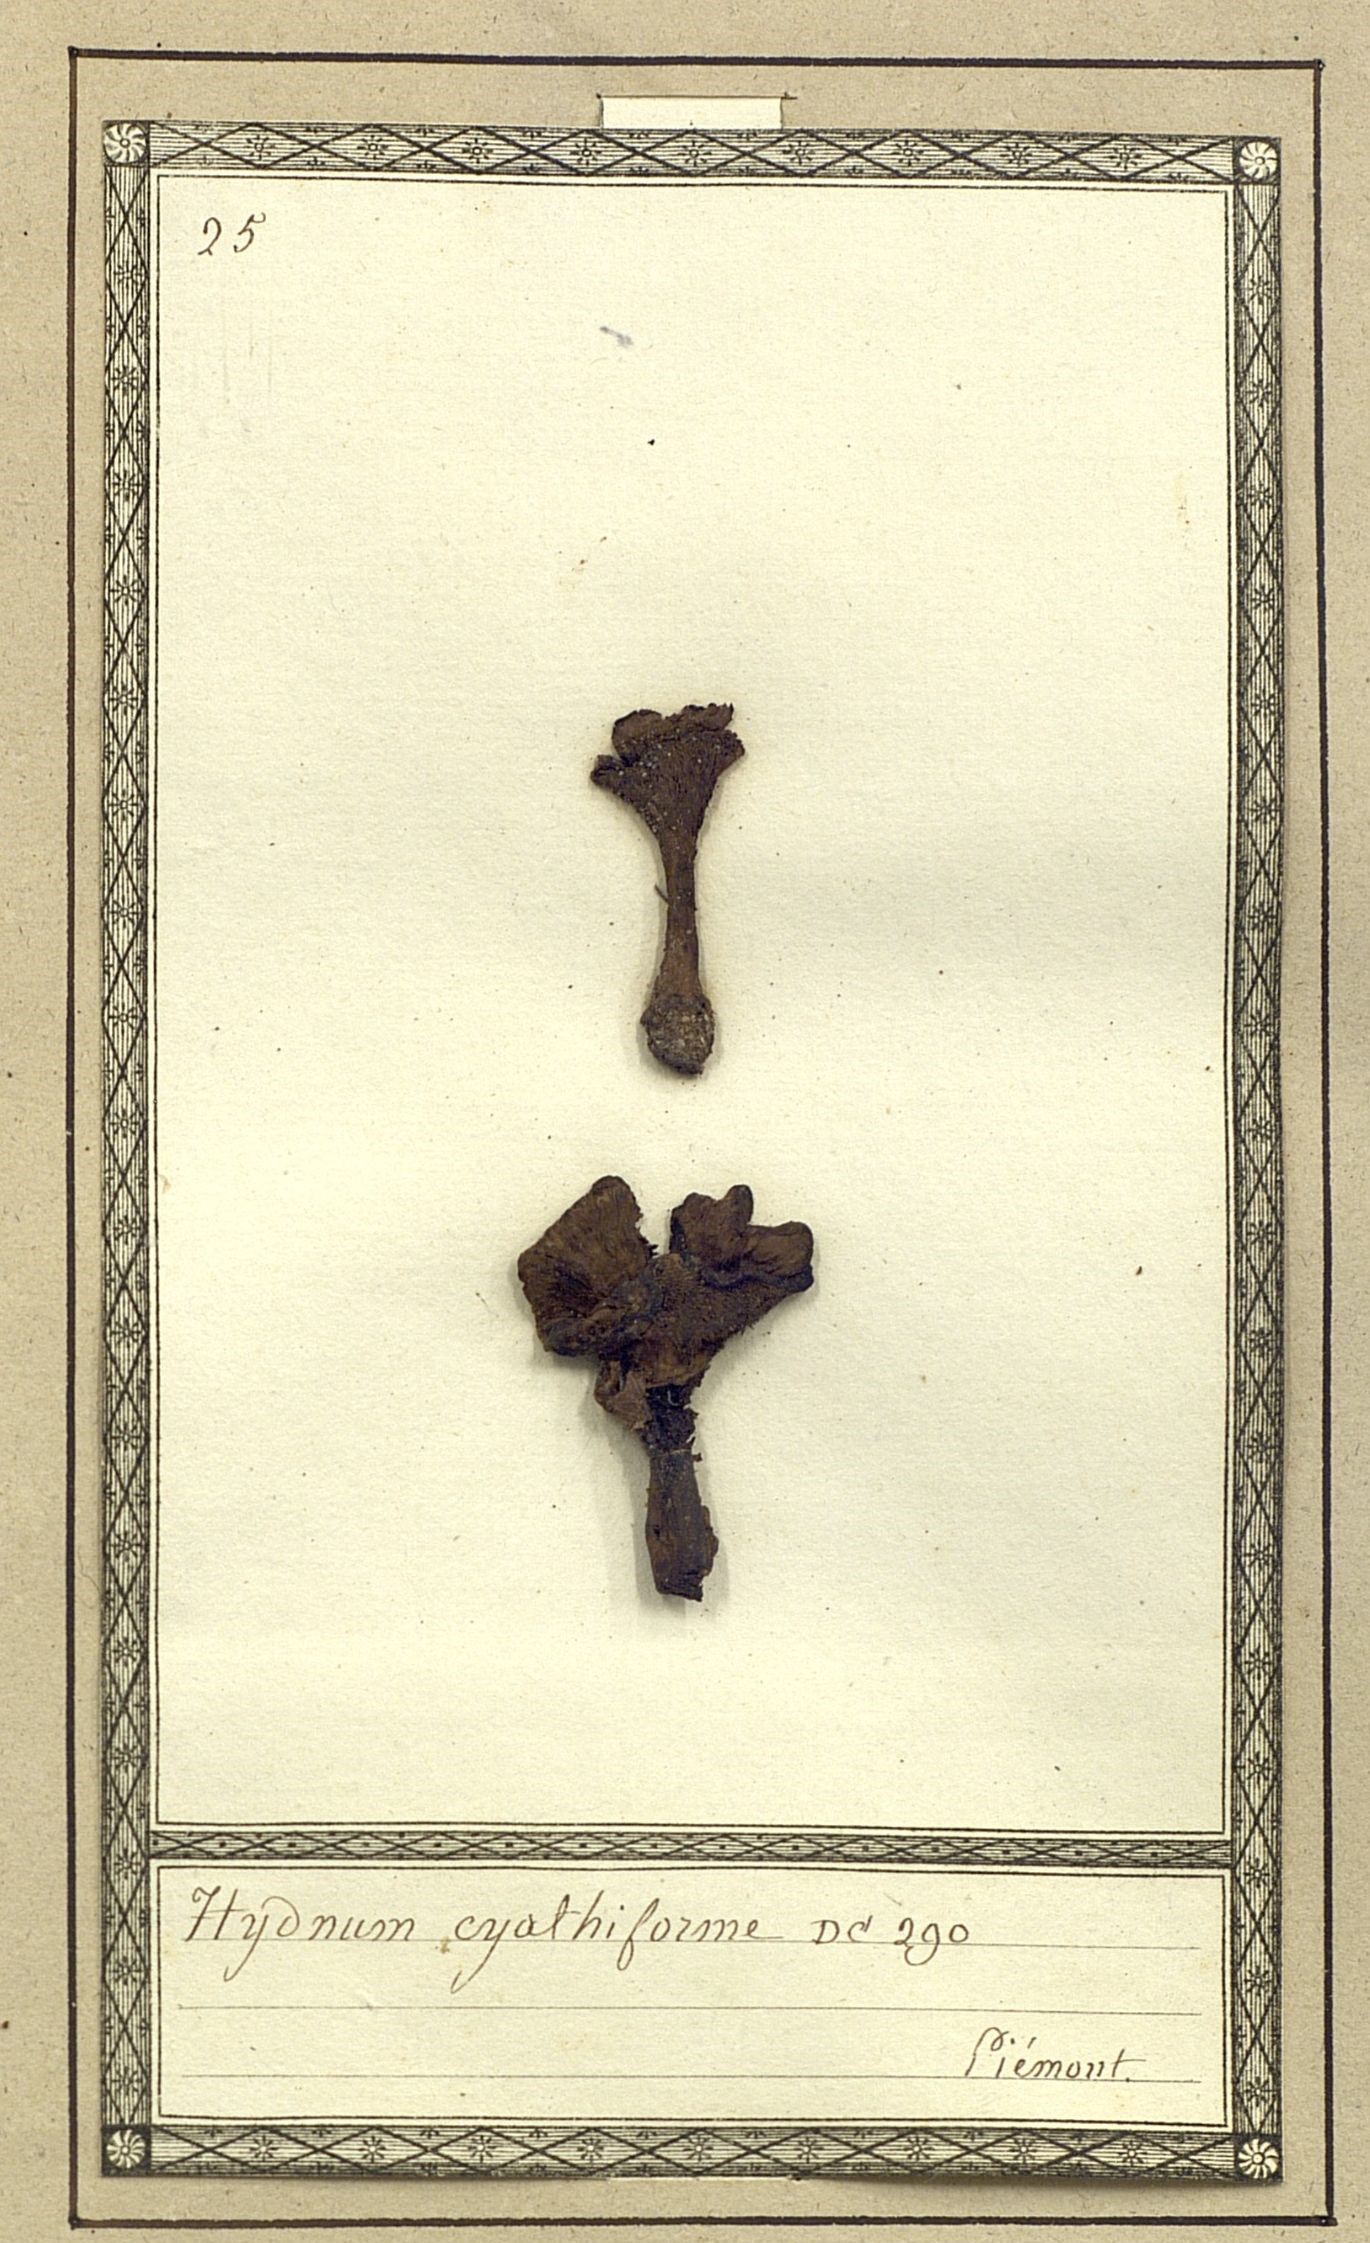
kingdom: Fungi
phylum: Basidiomycota
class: Agaricomycetes
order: Thelephorales
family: Thelephoraceae
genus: Phellodon
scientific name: Phellodon tomentosus
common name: Woolly tooth
